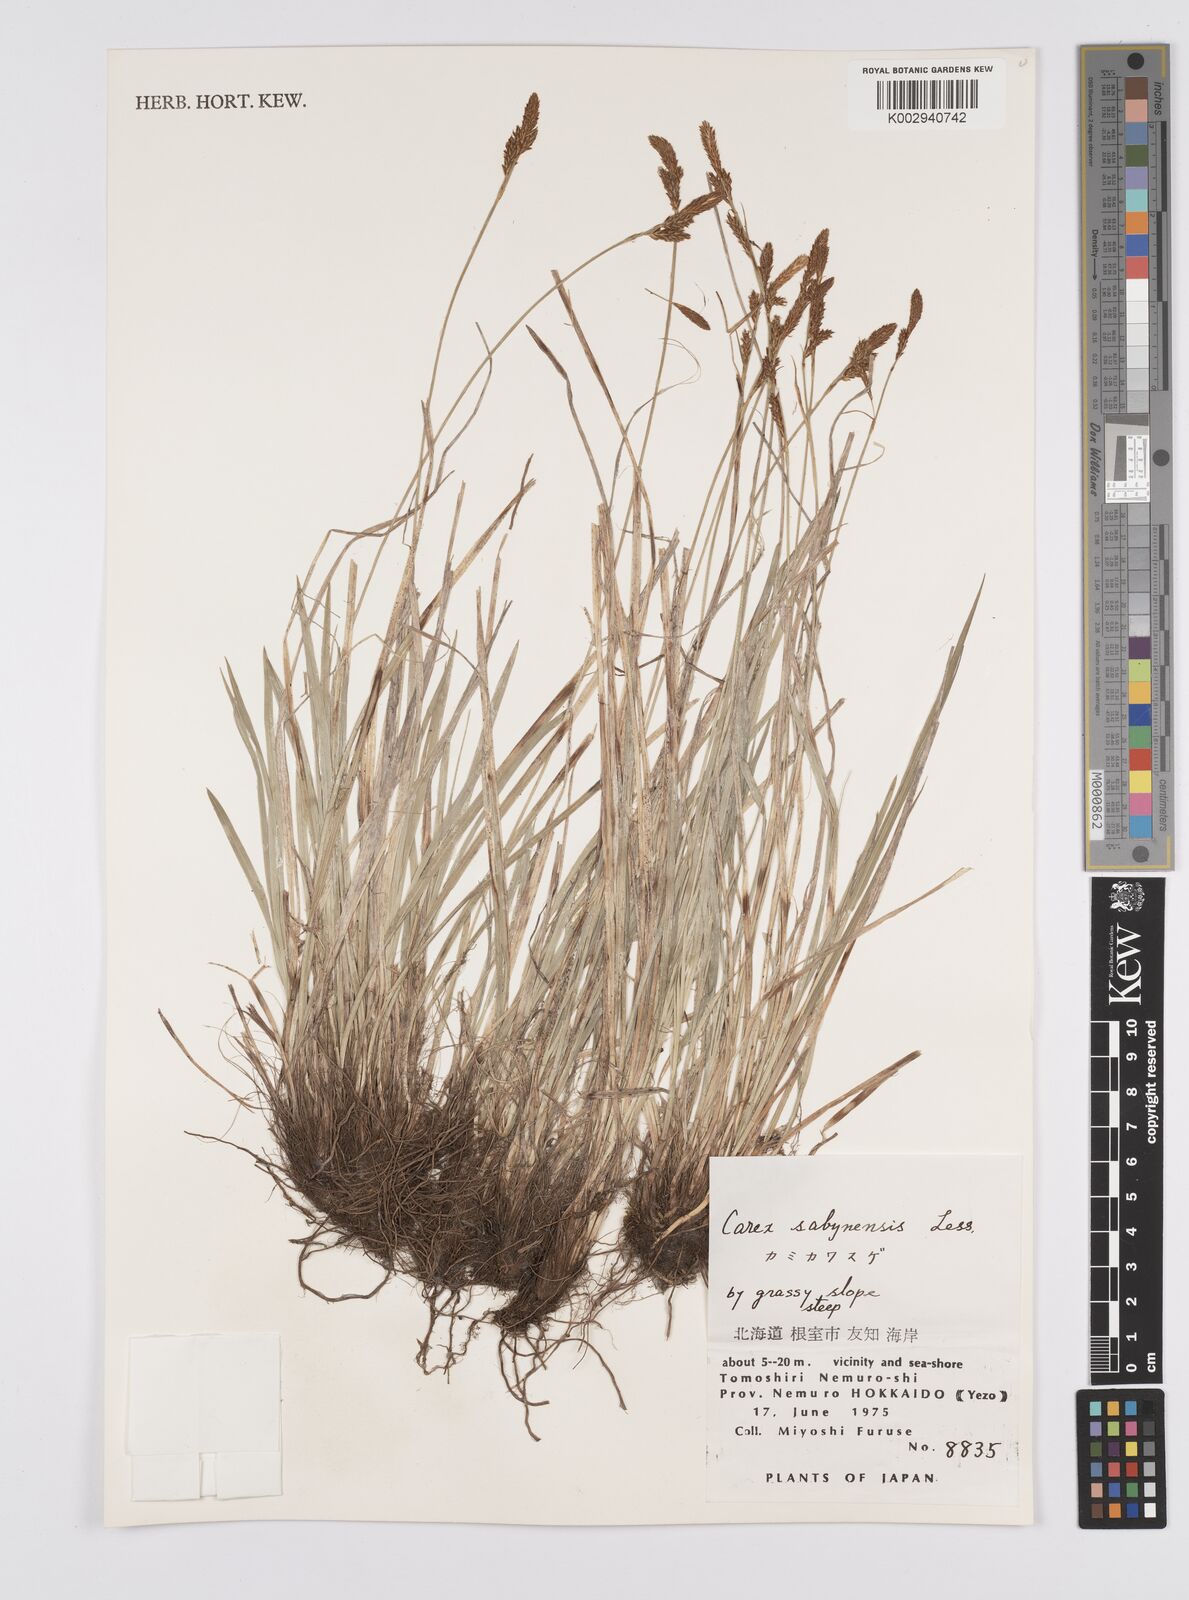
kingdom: Plantae
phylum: Tracheophyta
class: Liliopsida
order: Poales
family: Cyperaceae
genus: Carex
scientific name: Carex umbrosa
